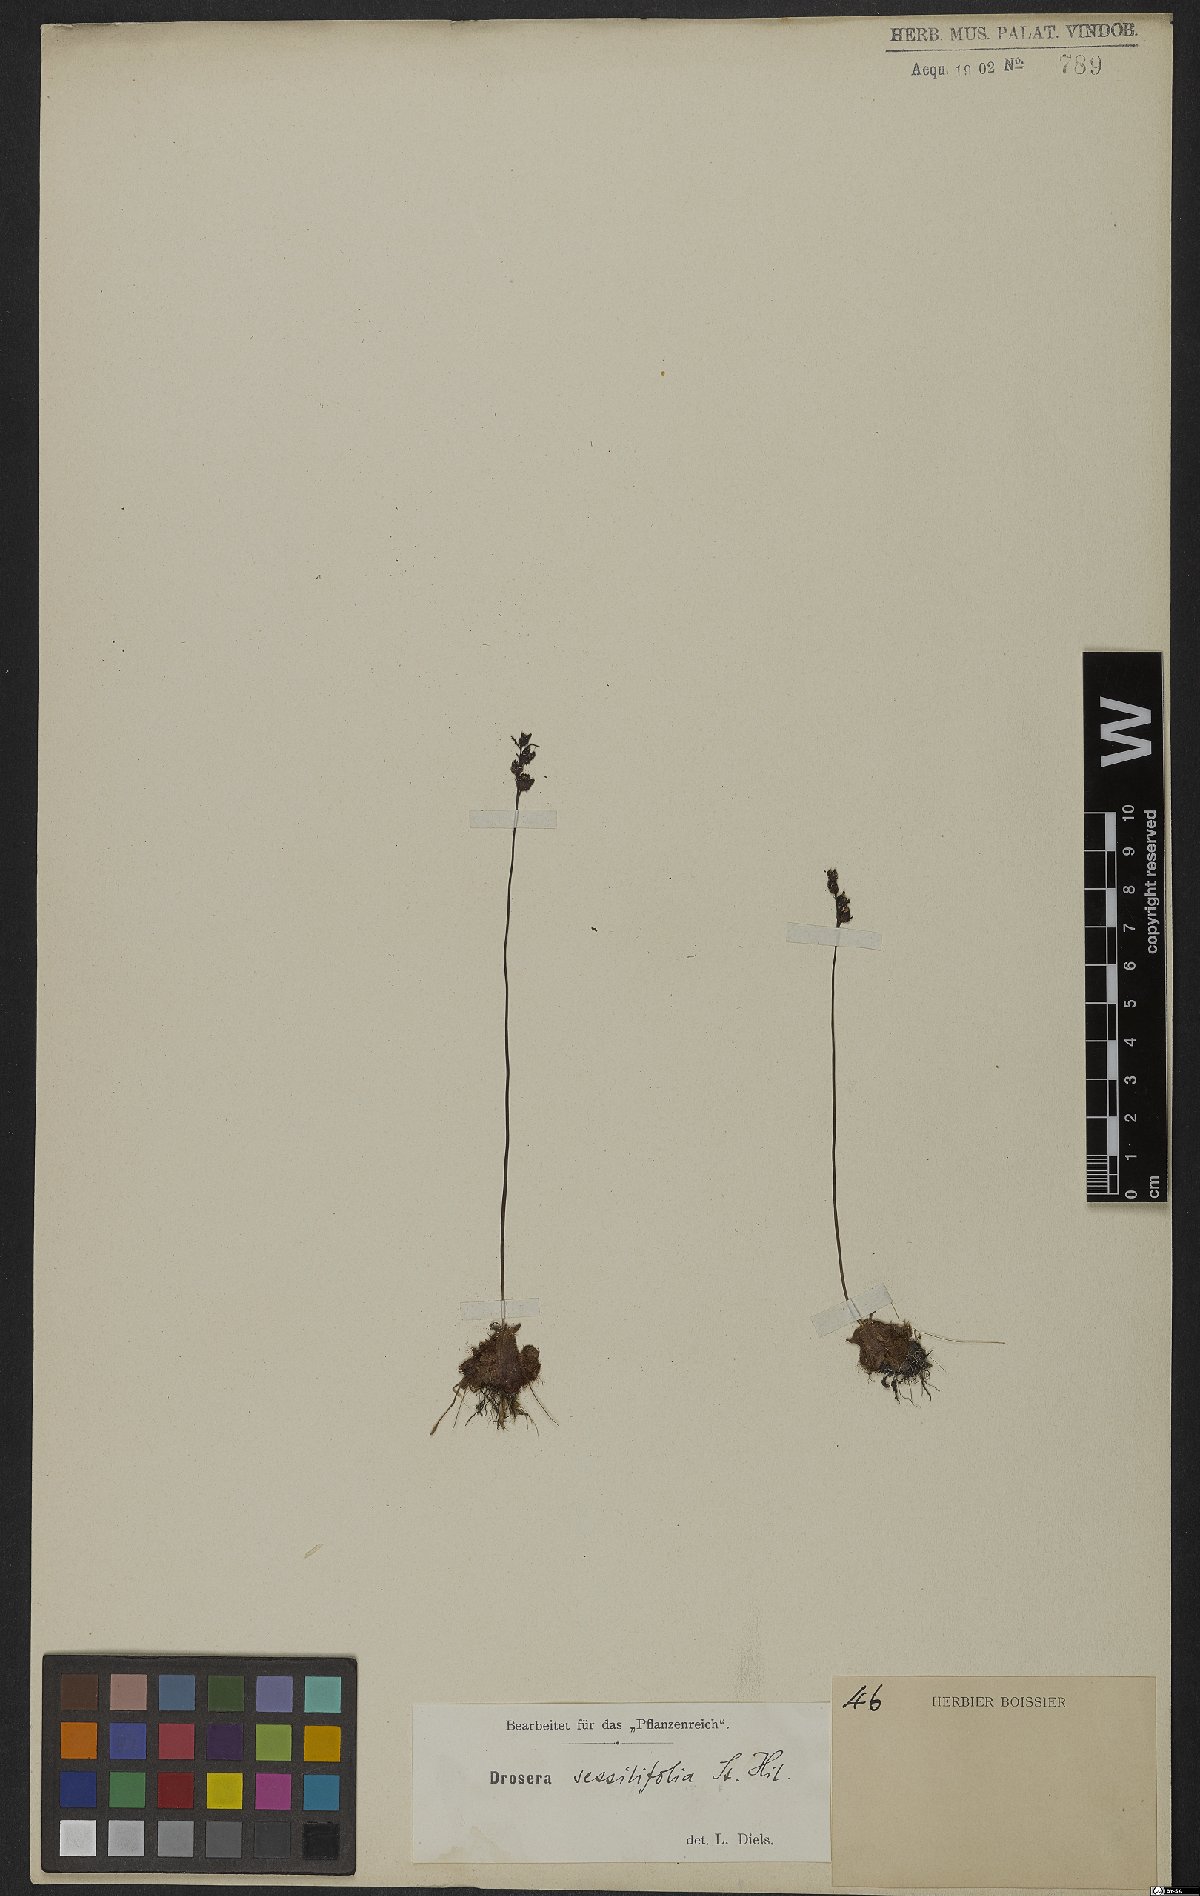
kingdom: Plantae
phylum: Tracheophyta
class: Magnoliopsida
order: Caryophyllales
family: Droseraceae
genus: Drosera
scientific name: Drosera sessilifolia
